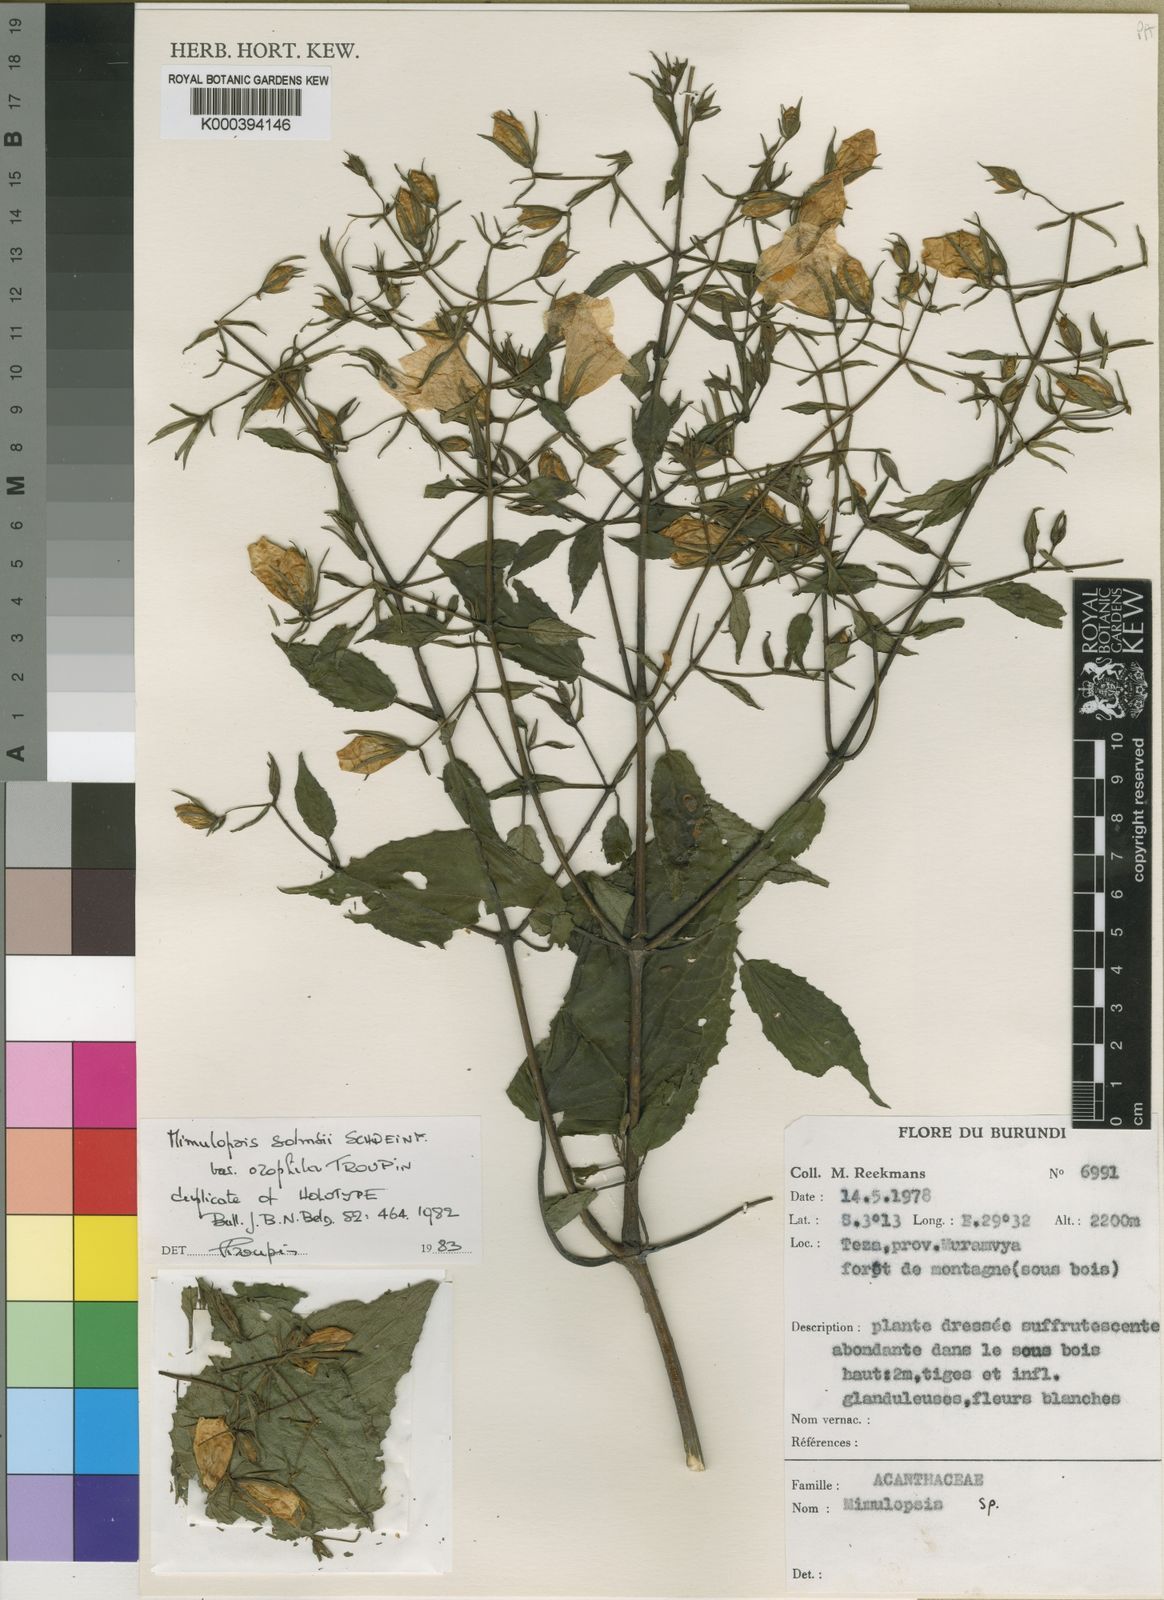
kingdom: Plantae
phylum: Tracheophyta
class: Magnoliopsida
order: Lamiales
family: Acanthaceae
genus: Mimulopsis
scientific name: Mimulopsis solmsii
